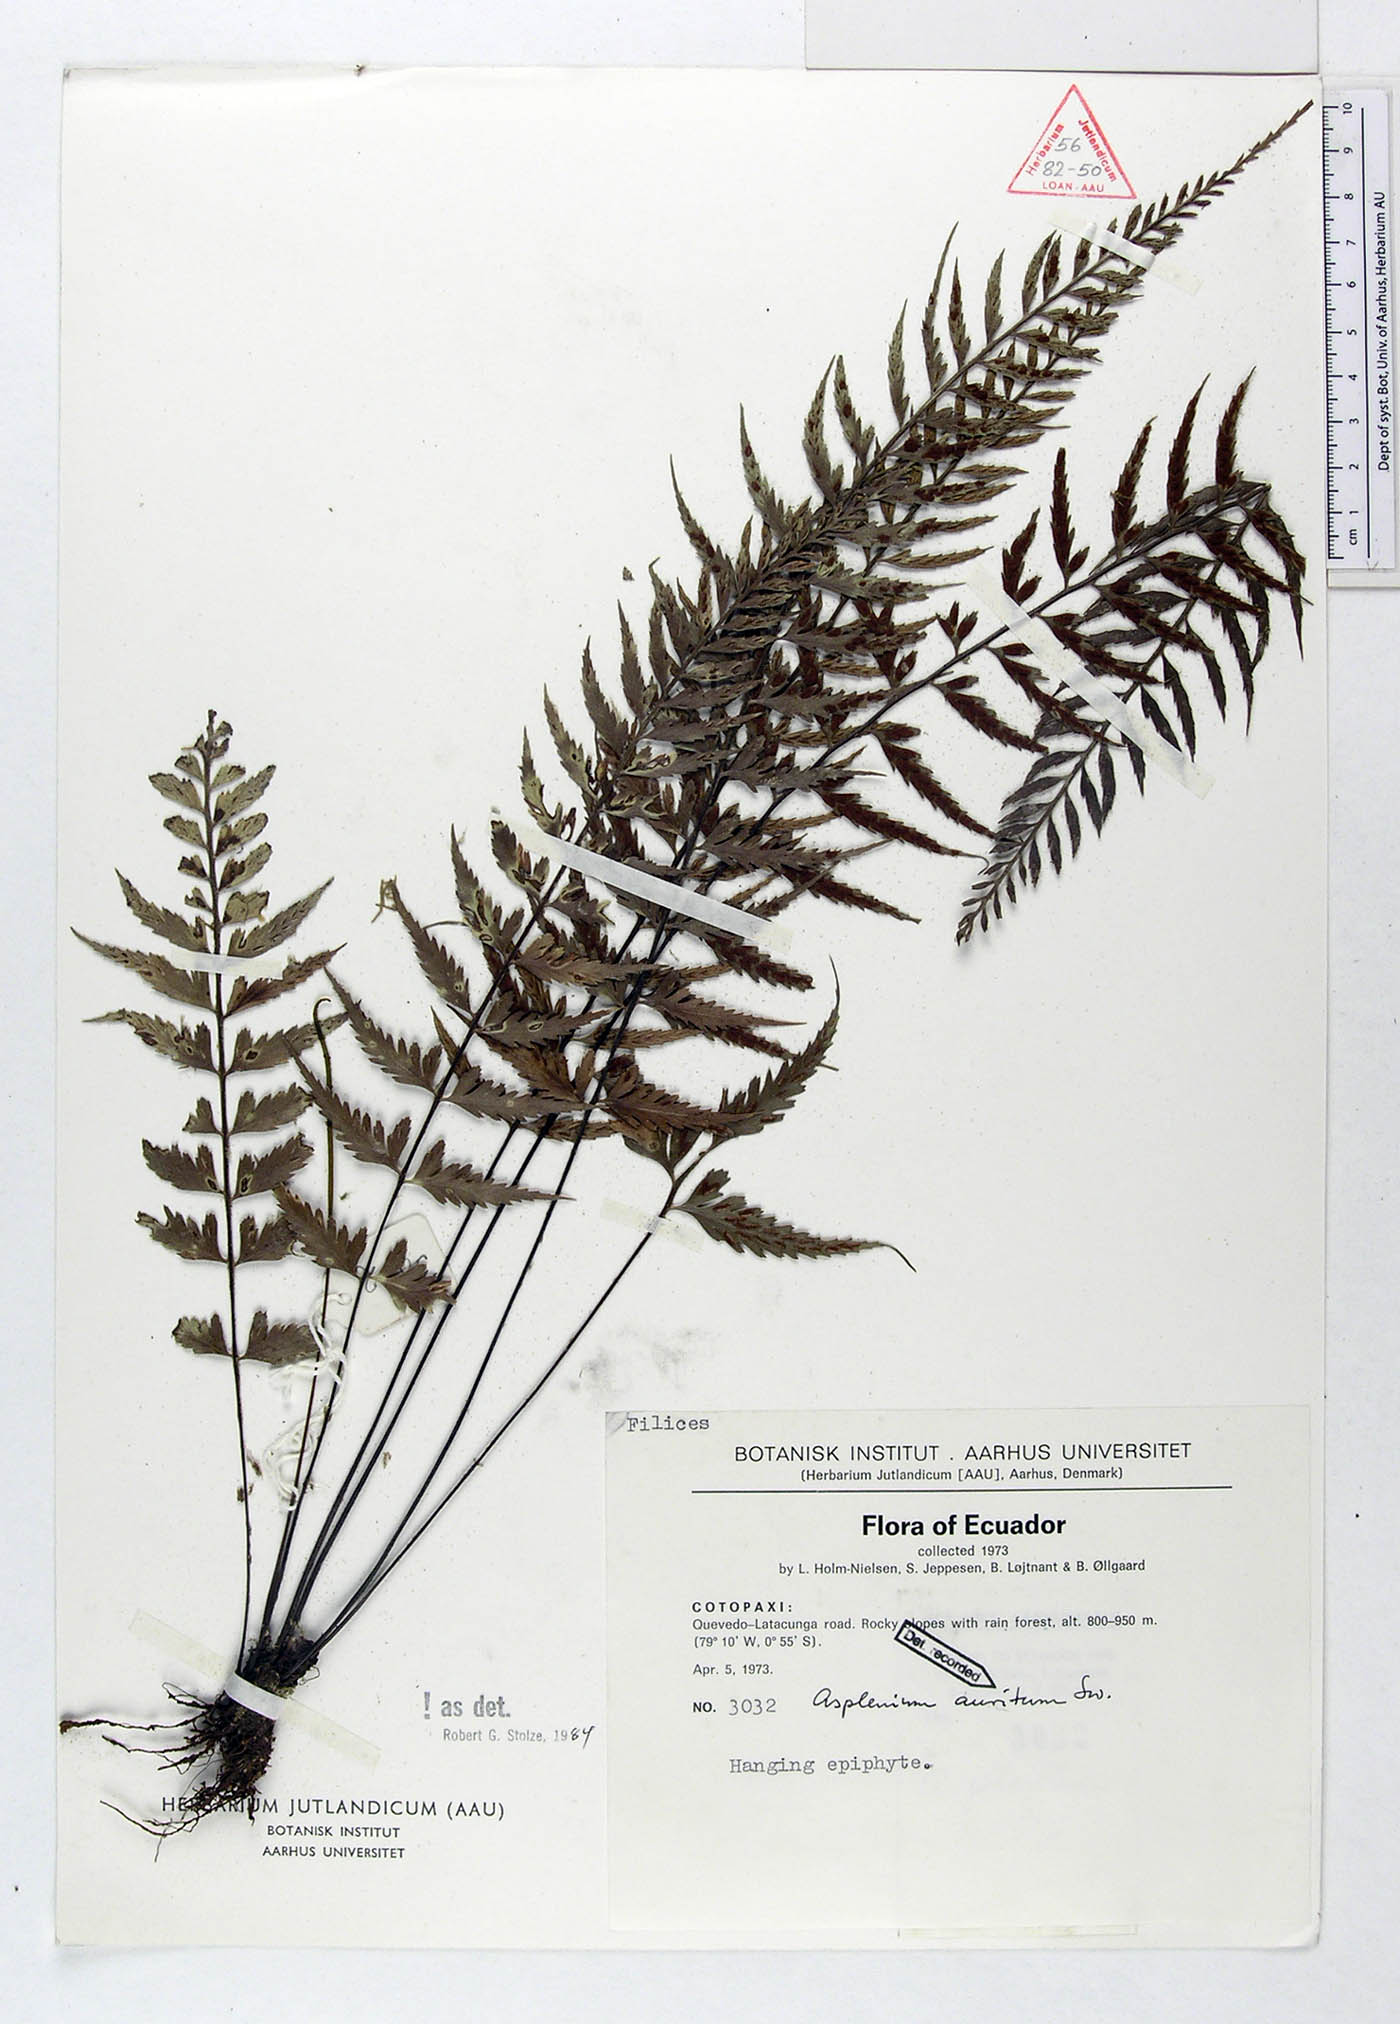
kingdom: Plantae
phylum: Tracheophyta
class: Polypodiopsida
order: Polypodiales
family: Aspleniaceae
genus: Asplenium
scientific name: Asplenium auritum
